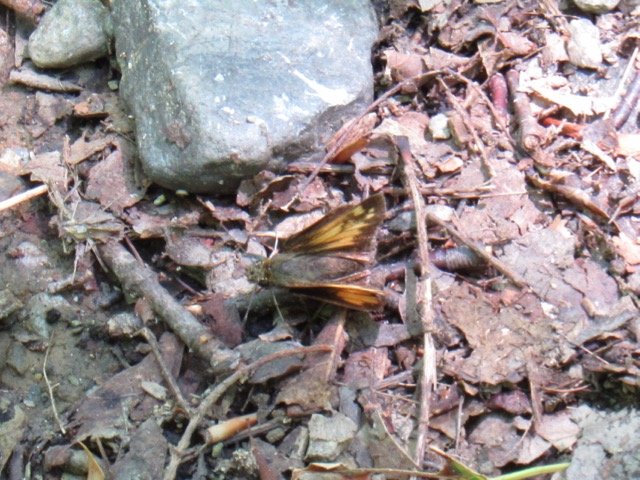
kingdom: Animalia
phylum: Arthropoda
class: Insecta
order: Lepidoptera
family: Hesperiidae
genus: Lon
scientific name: Lon hobomok
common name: Hobomok Skipper
